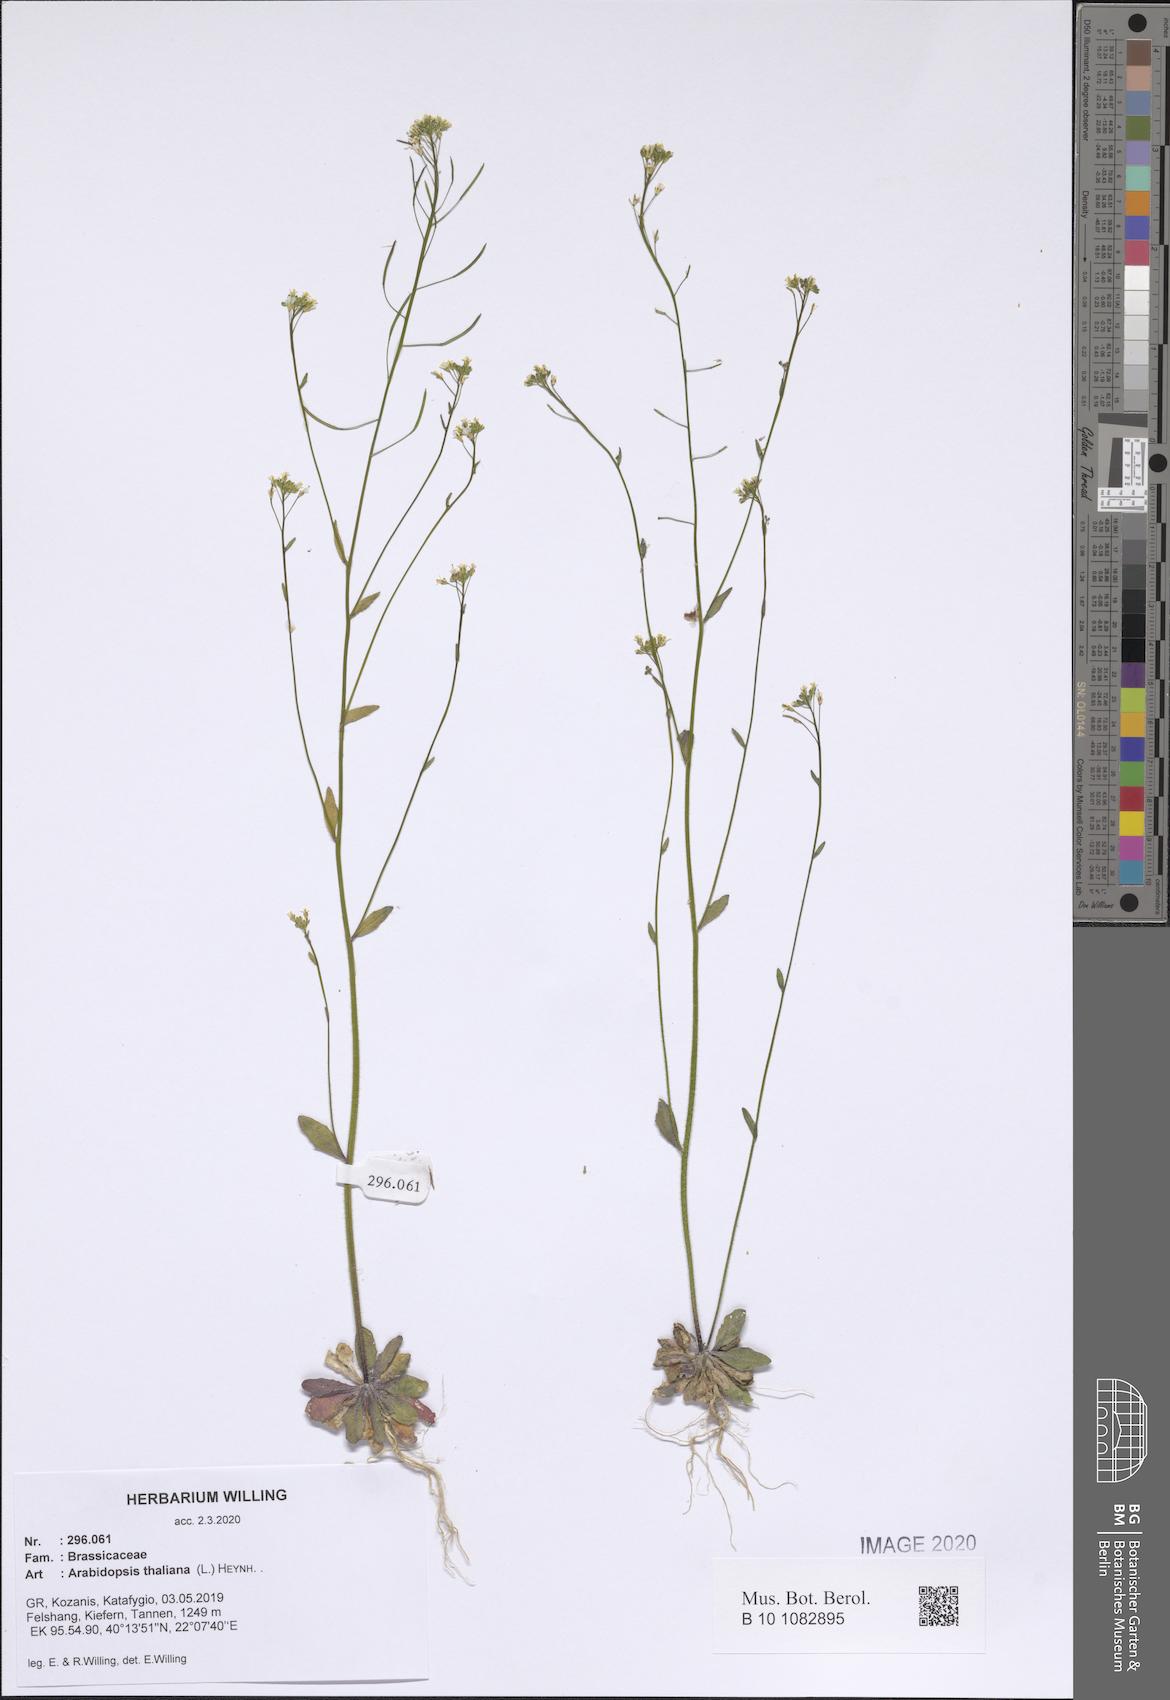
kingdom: Plantae
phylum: Tracheophyta
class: Magnoliopsida
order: Brassicales
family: Brassicaceae
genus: Arabidopsis
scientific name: Arabidopsis thaliana
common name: Thale cress
